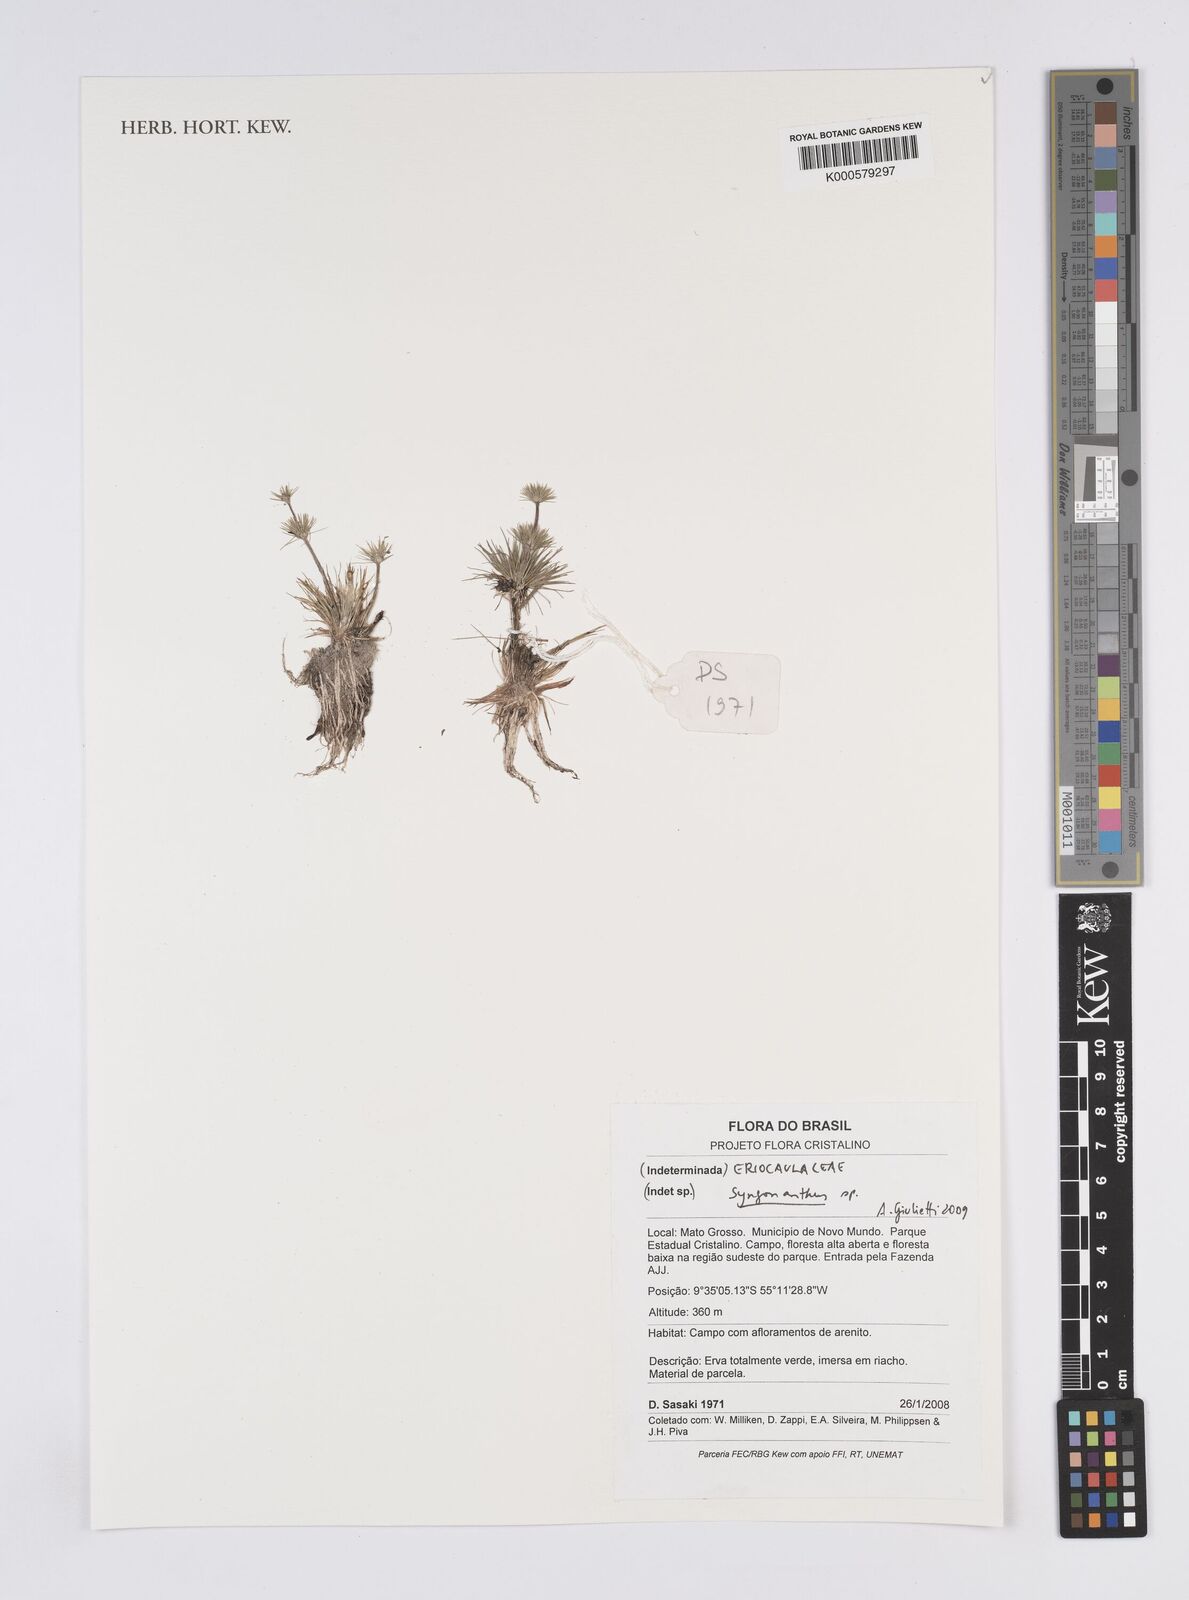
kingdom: Plantae
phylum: Tracheophyta
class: Liliopsida
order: Poales
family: Eriocaulaceae
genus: Syngonanthus
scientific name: Syngonanthus
